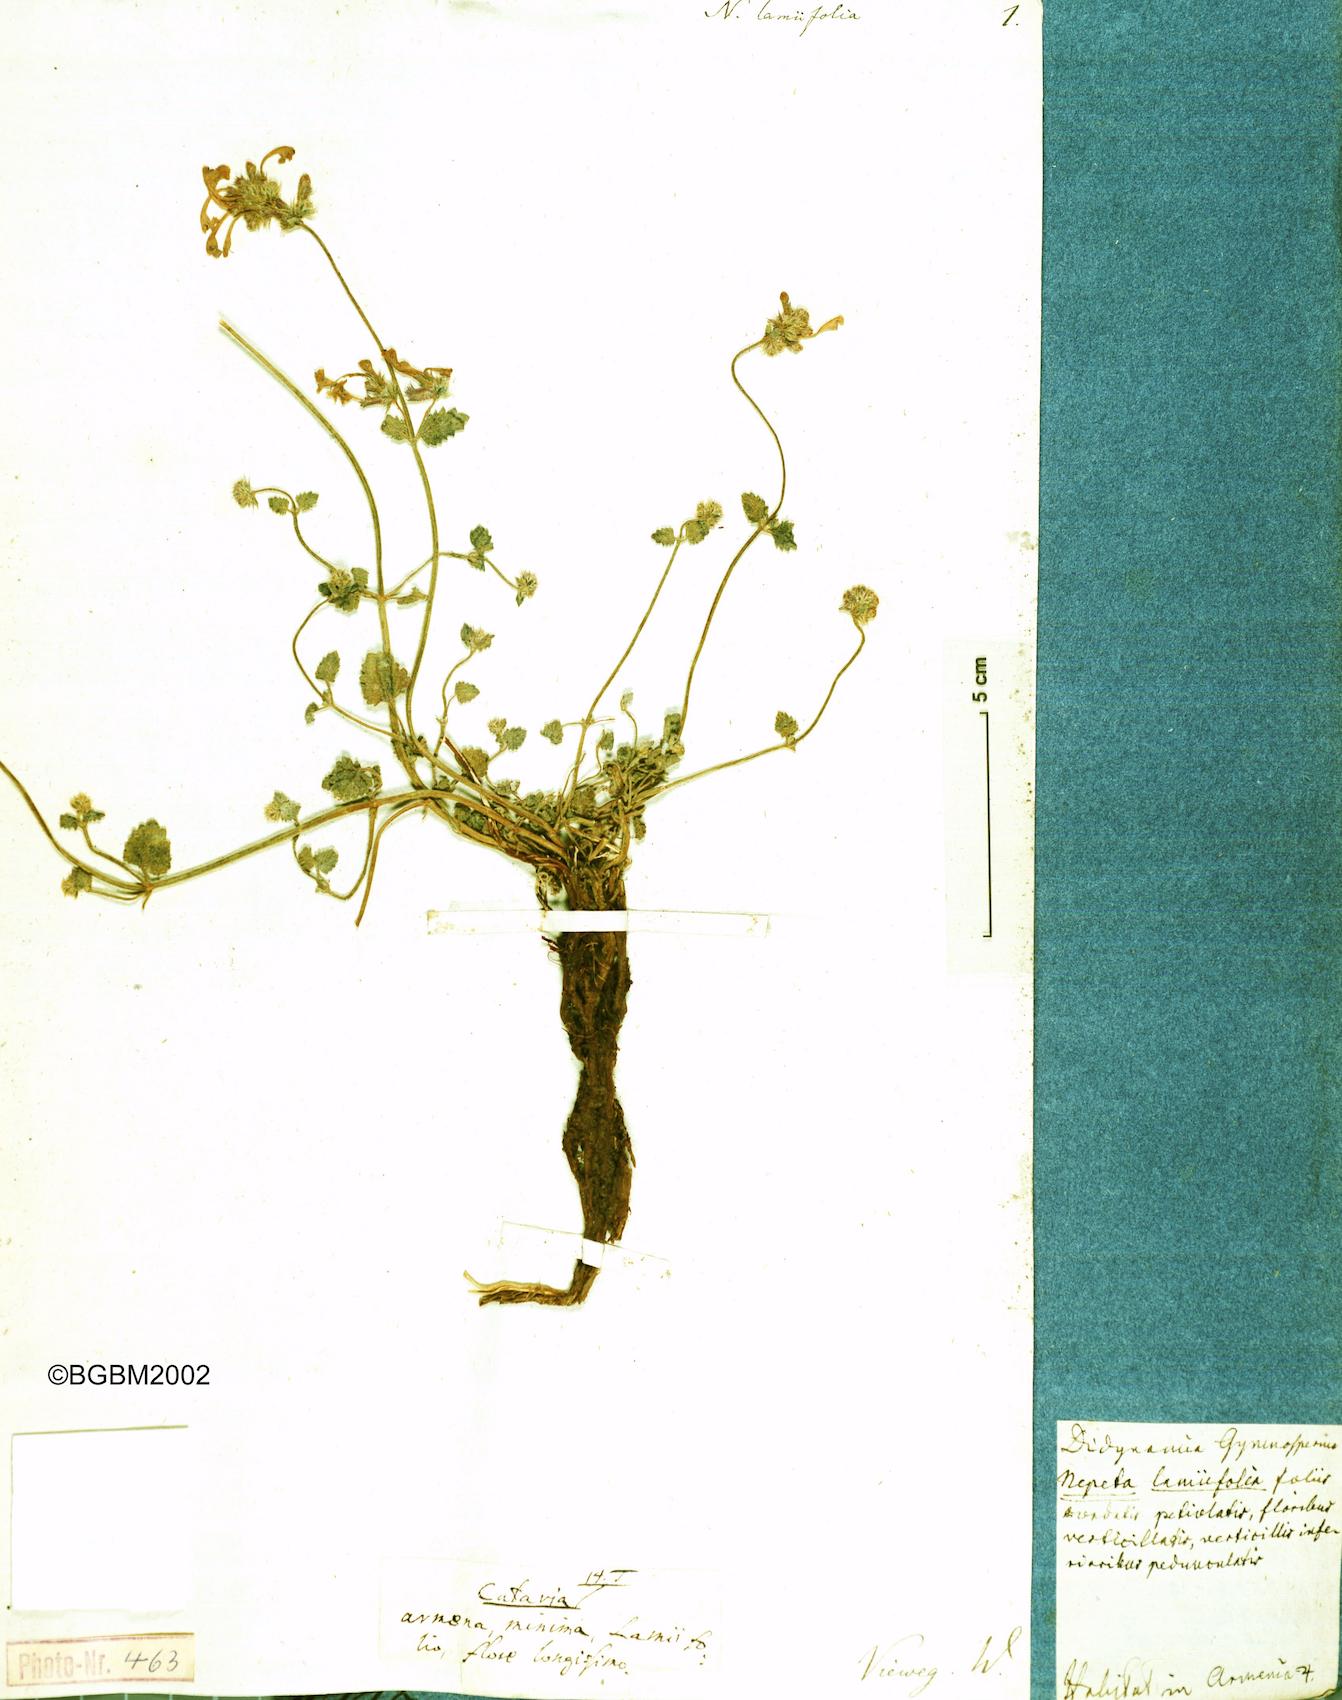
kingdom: Plantae
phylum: Tracheophyta
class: Magnoliopsida
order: Lamiales
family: Lamiaceae
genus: Nepeta
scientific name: Nepeta lamiifolia
